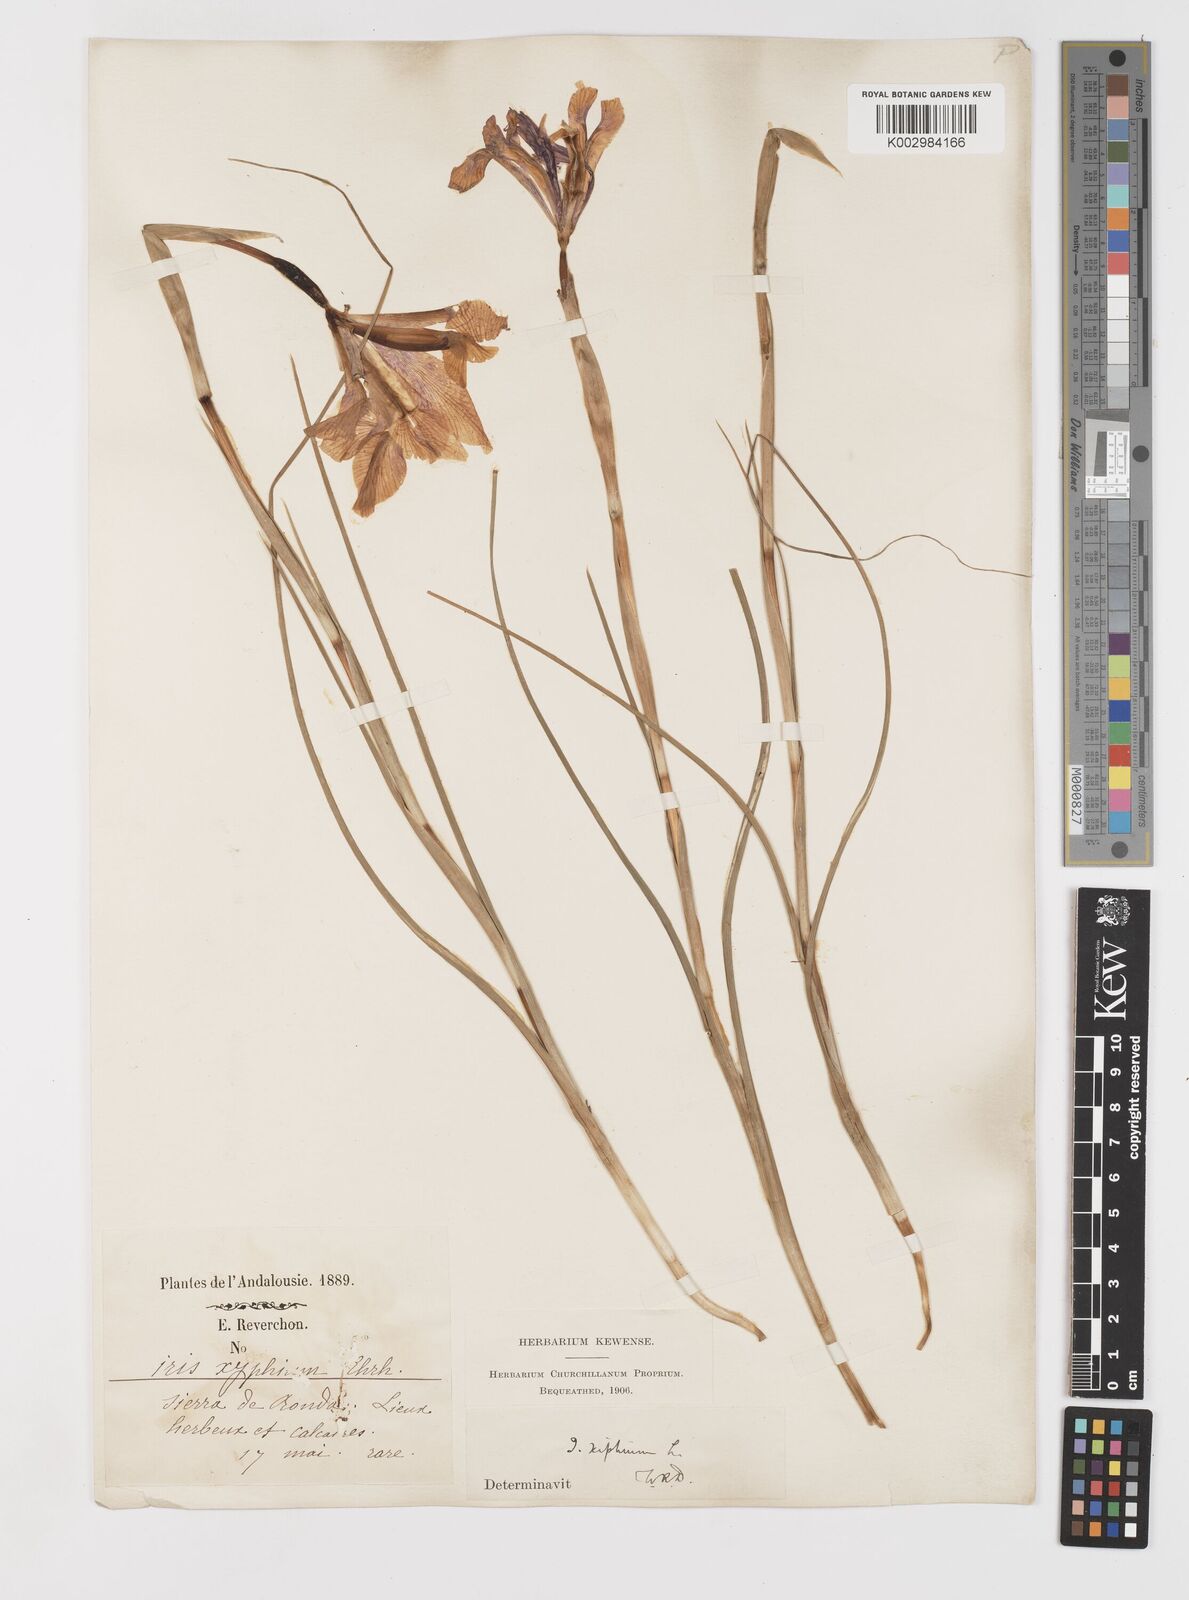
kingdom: Plantae
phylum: Tracheophyta
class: Liliopsida
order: Asparagales
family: Iridaceae
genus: Iris
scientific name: Iris xiphium
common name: Spanish iris
